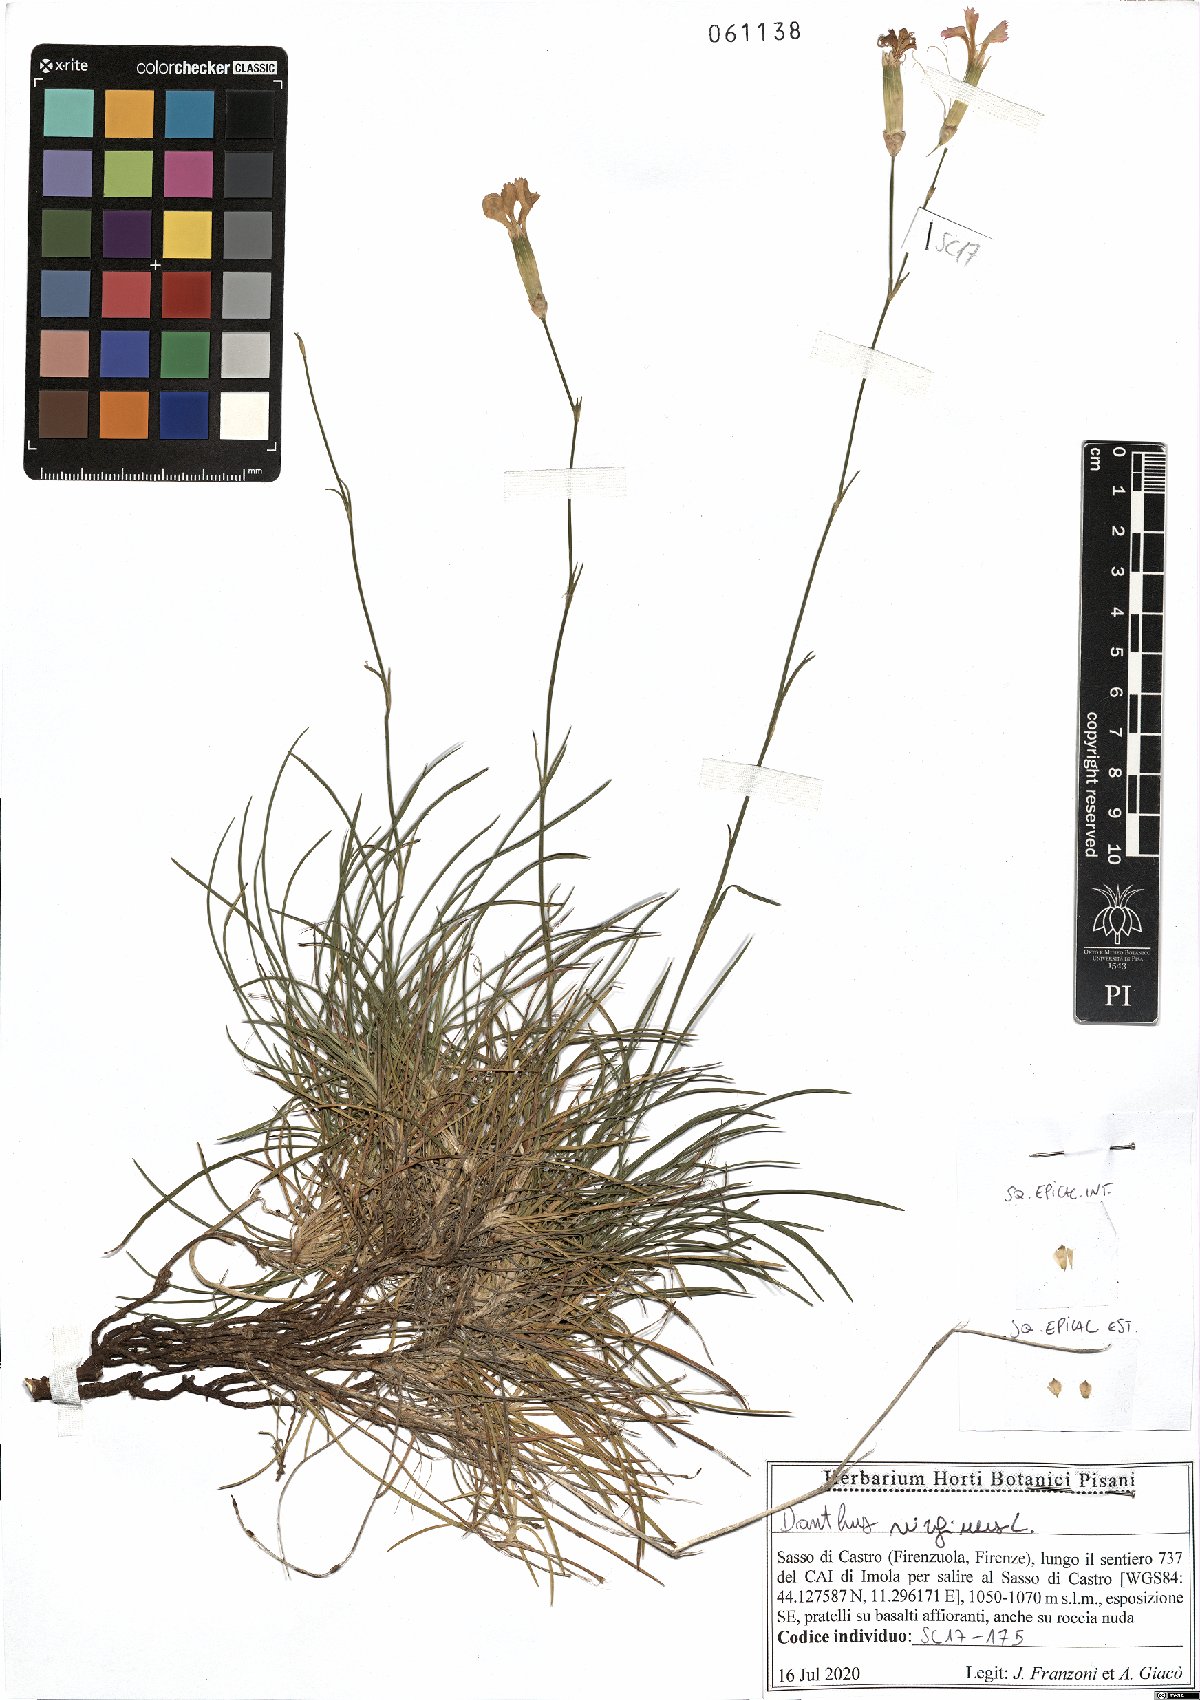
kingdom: Plantae
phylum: Tracheophyta
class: Magnoliopsida
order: Caryophyllales
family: Caryophyllaceae
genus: Dianthus
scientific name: Dianthus virgineus
